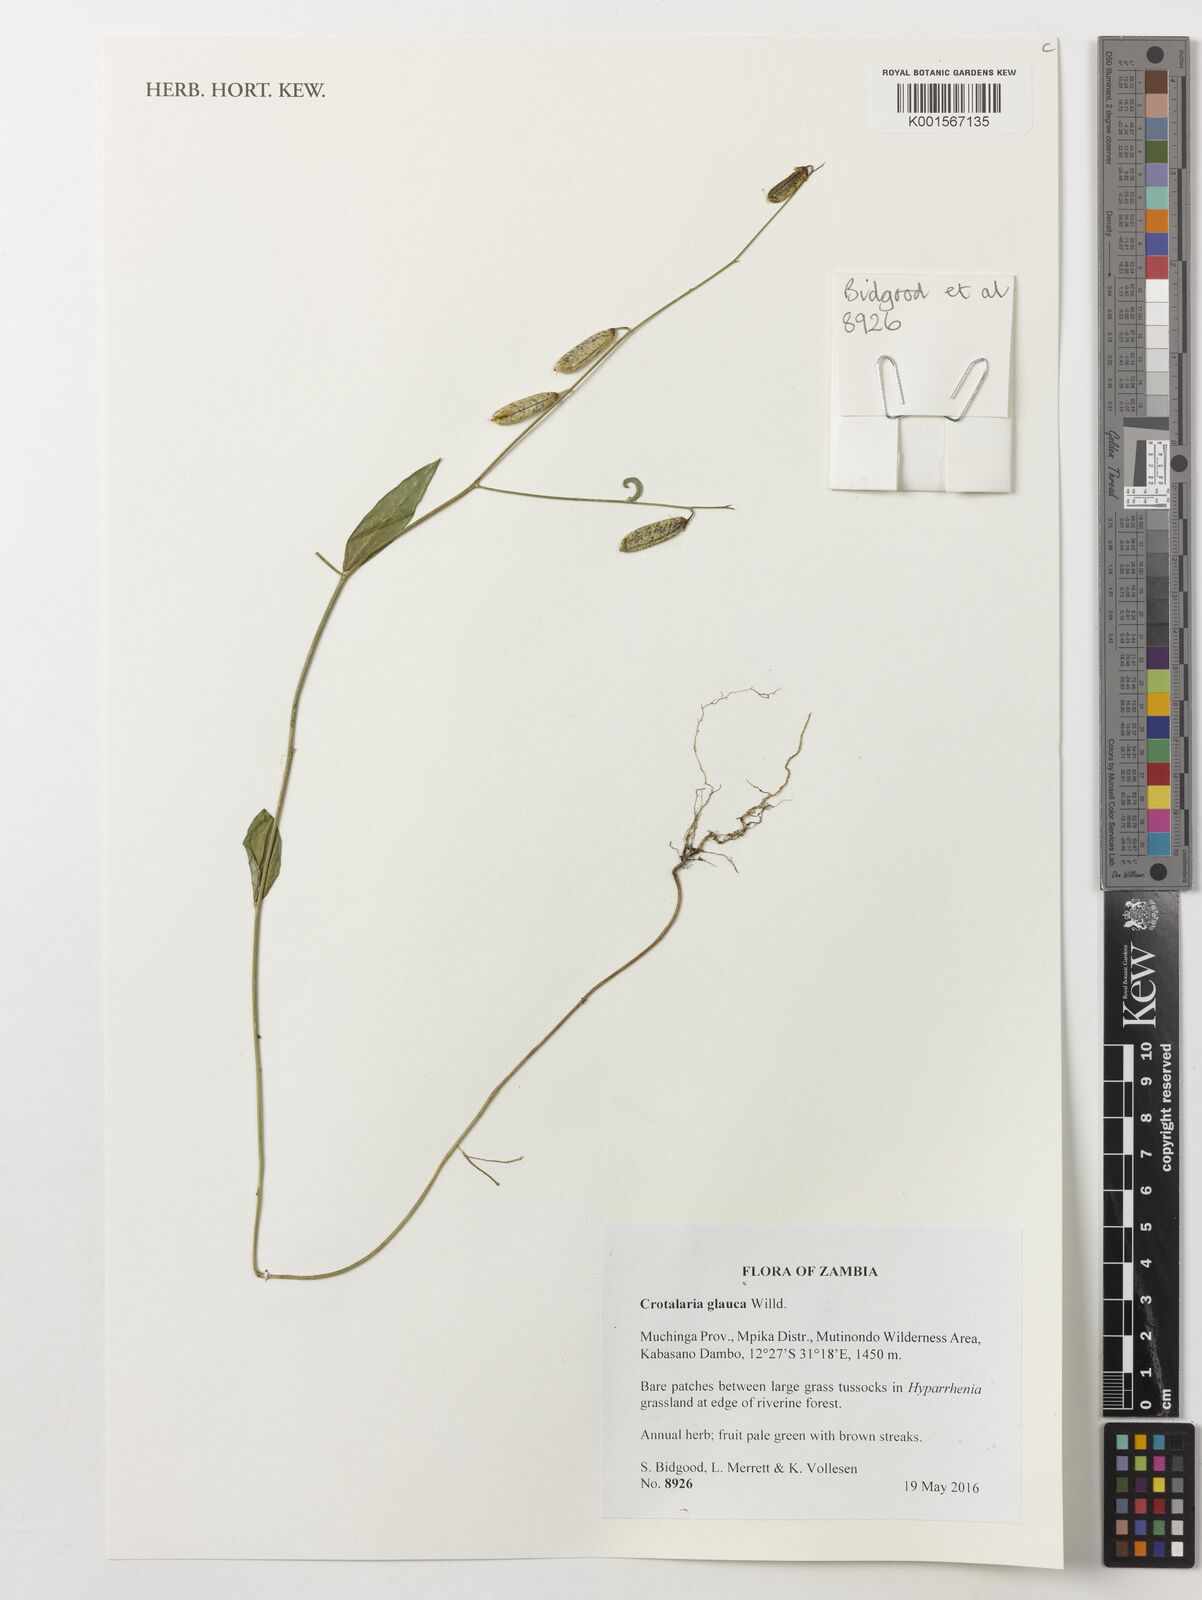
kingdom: Plantae
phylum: Tracheophyta
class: Magnoliopsida
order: Fabales
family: Fabaceae
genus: Crotalaria
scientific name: Crotalaria glauca
